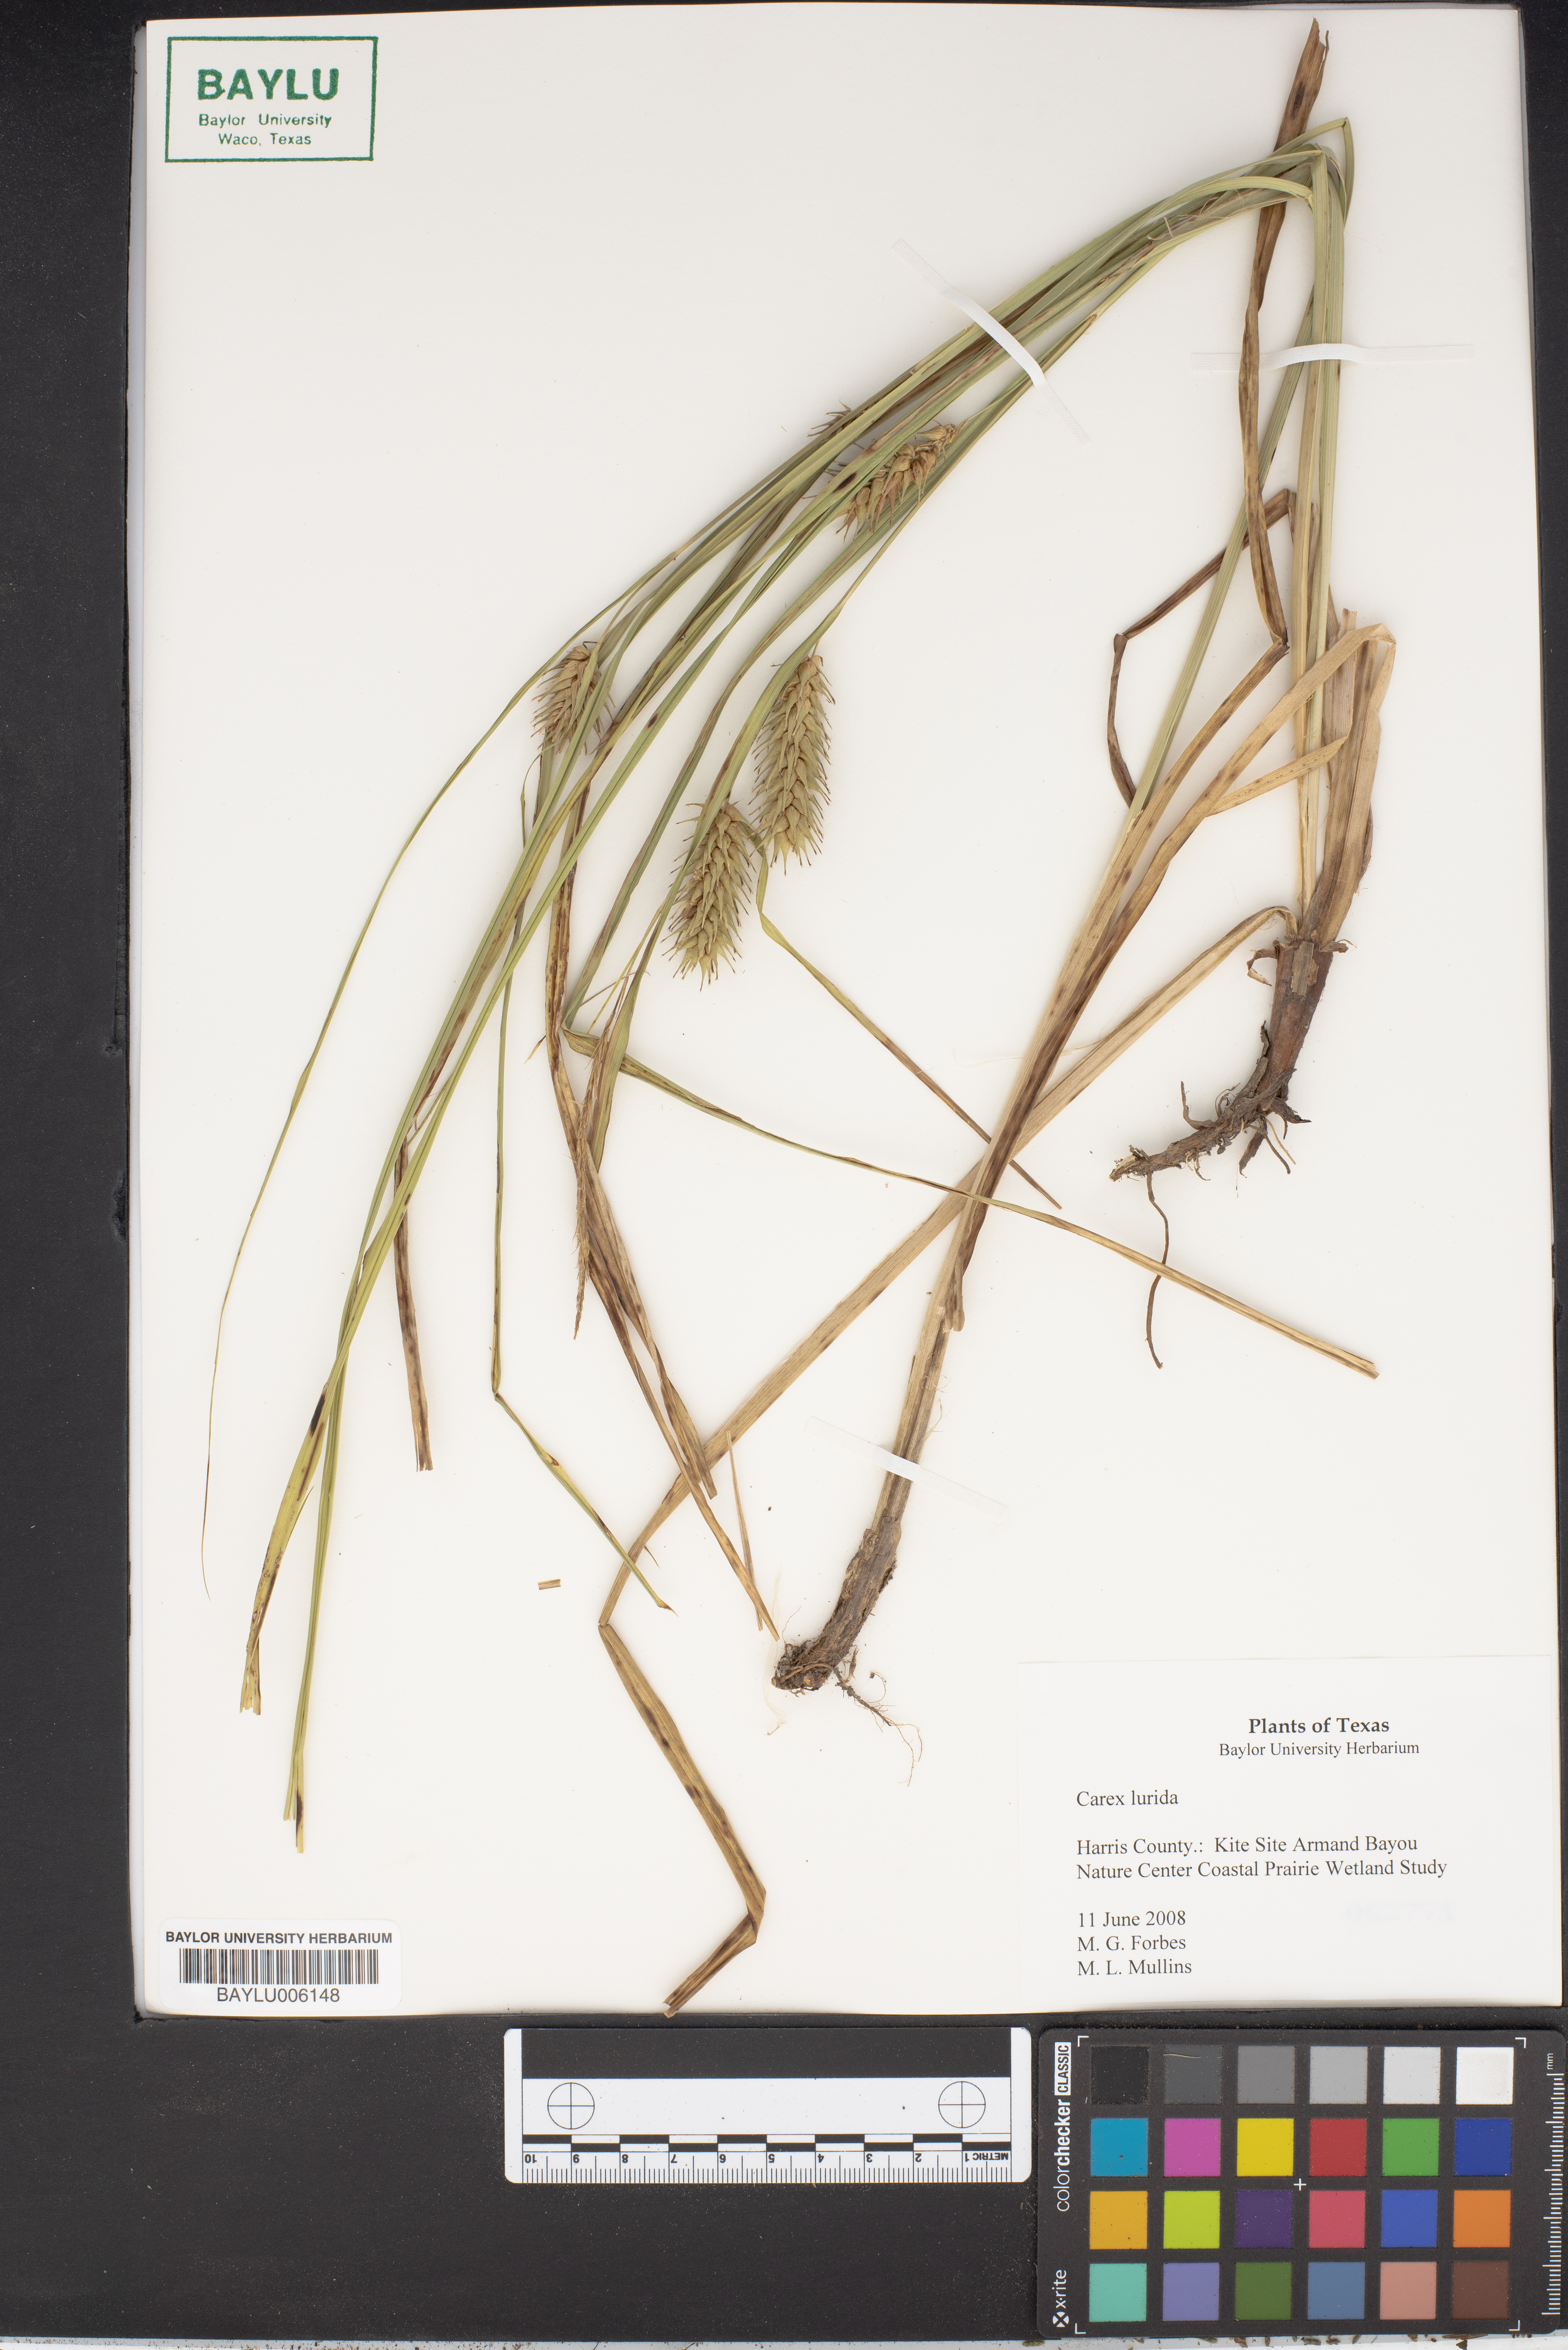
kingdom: Plantae
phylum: Tracheophyta
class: Liliopsida
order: Poales
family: Cyperaceae
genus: Carex
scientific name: Carex lurida
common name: Sallow sedge
